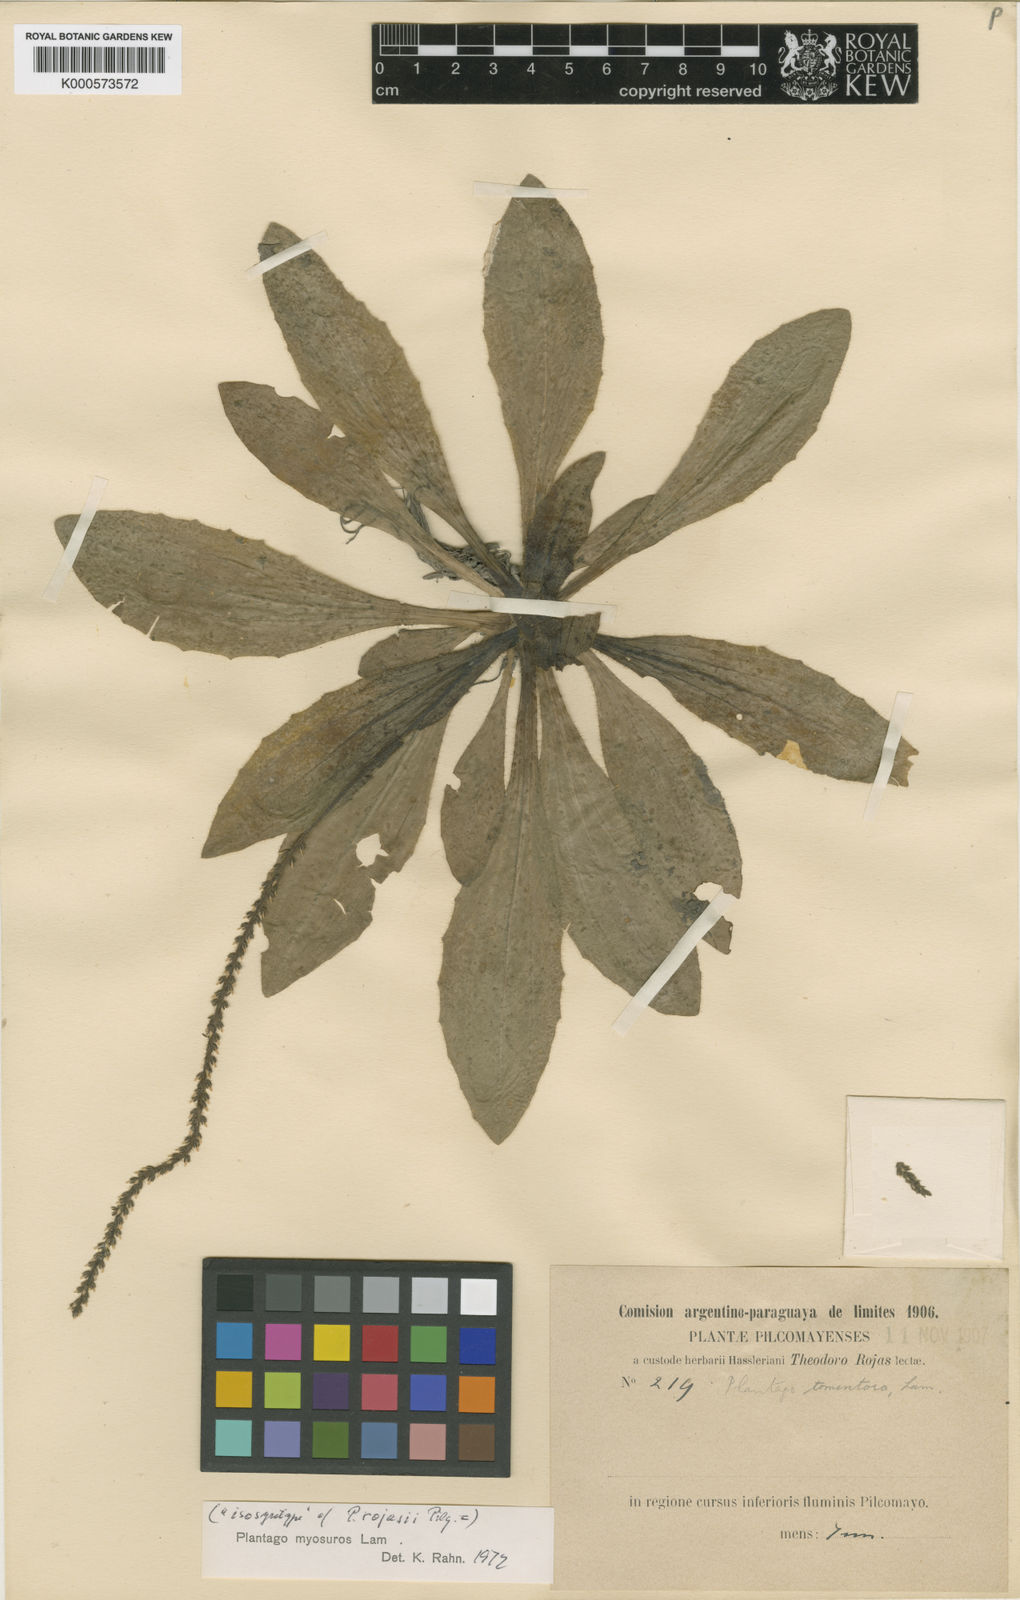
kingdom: Plantae
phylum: Tracheophyta
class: Magnoliopsida
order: Lamiales
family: Plantaginaceae
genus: Plantago
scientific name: Plantago myosuros
